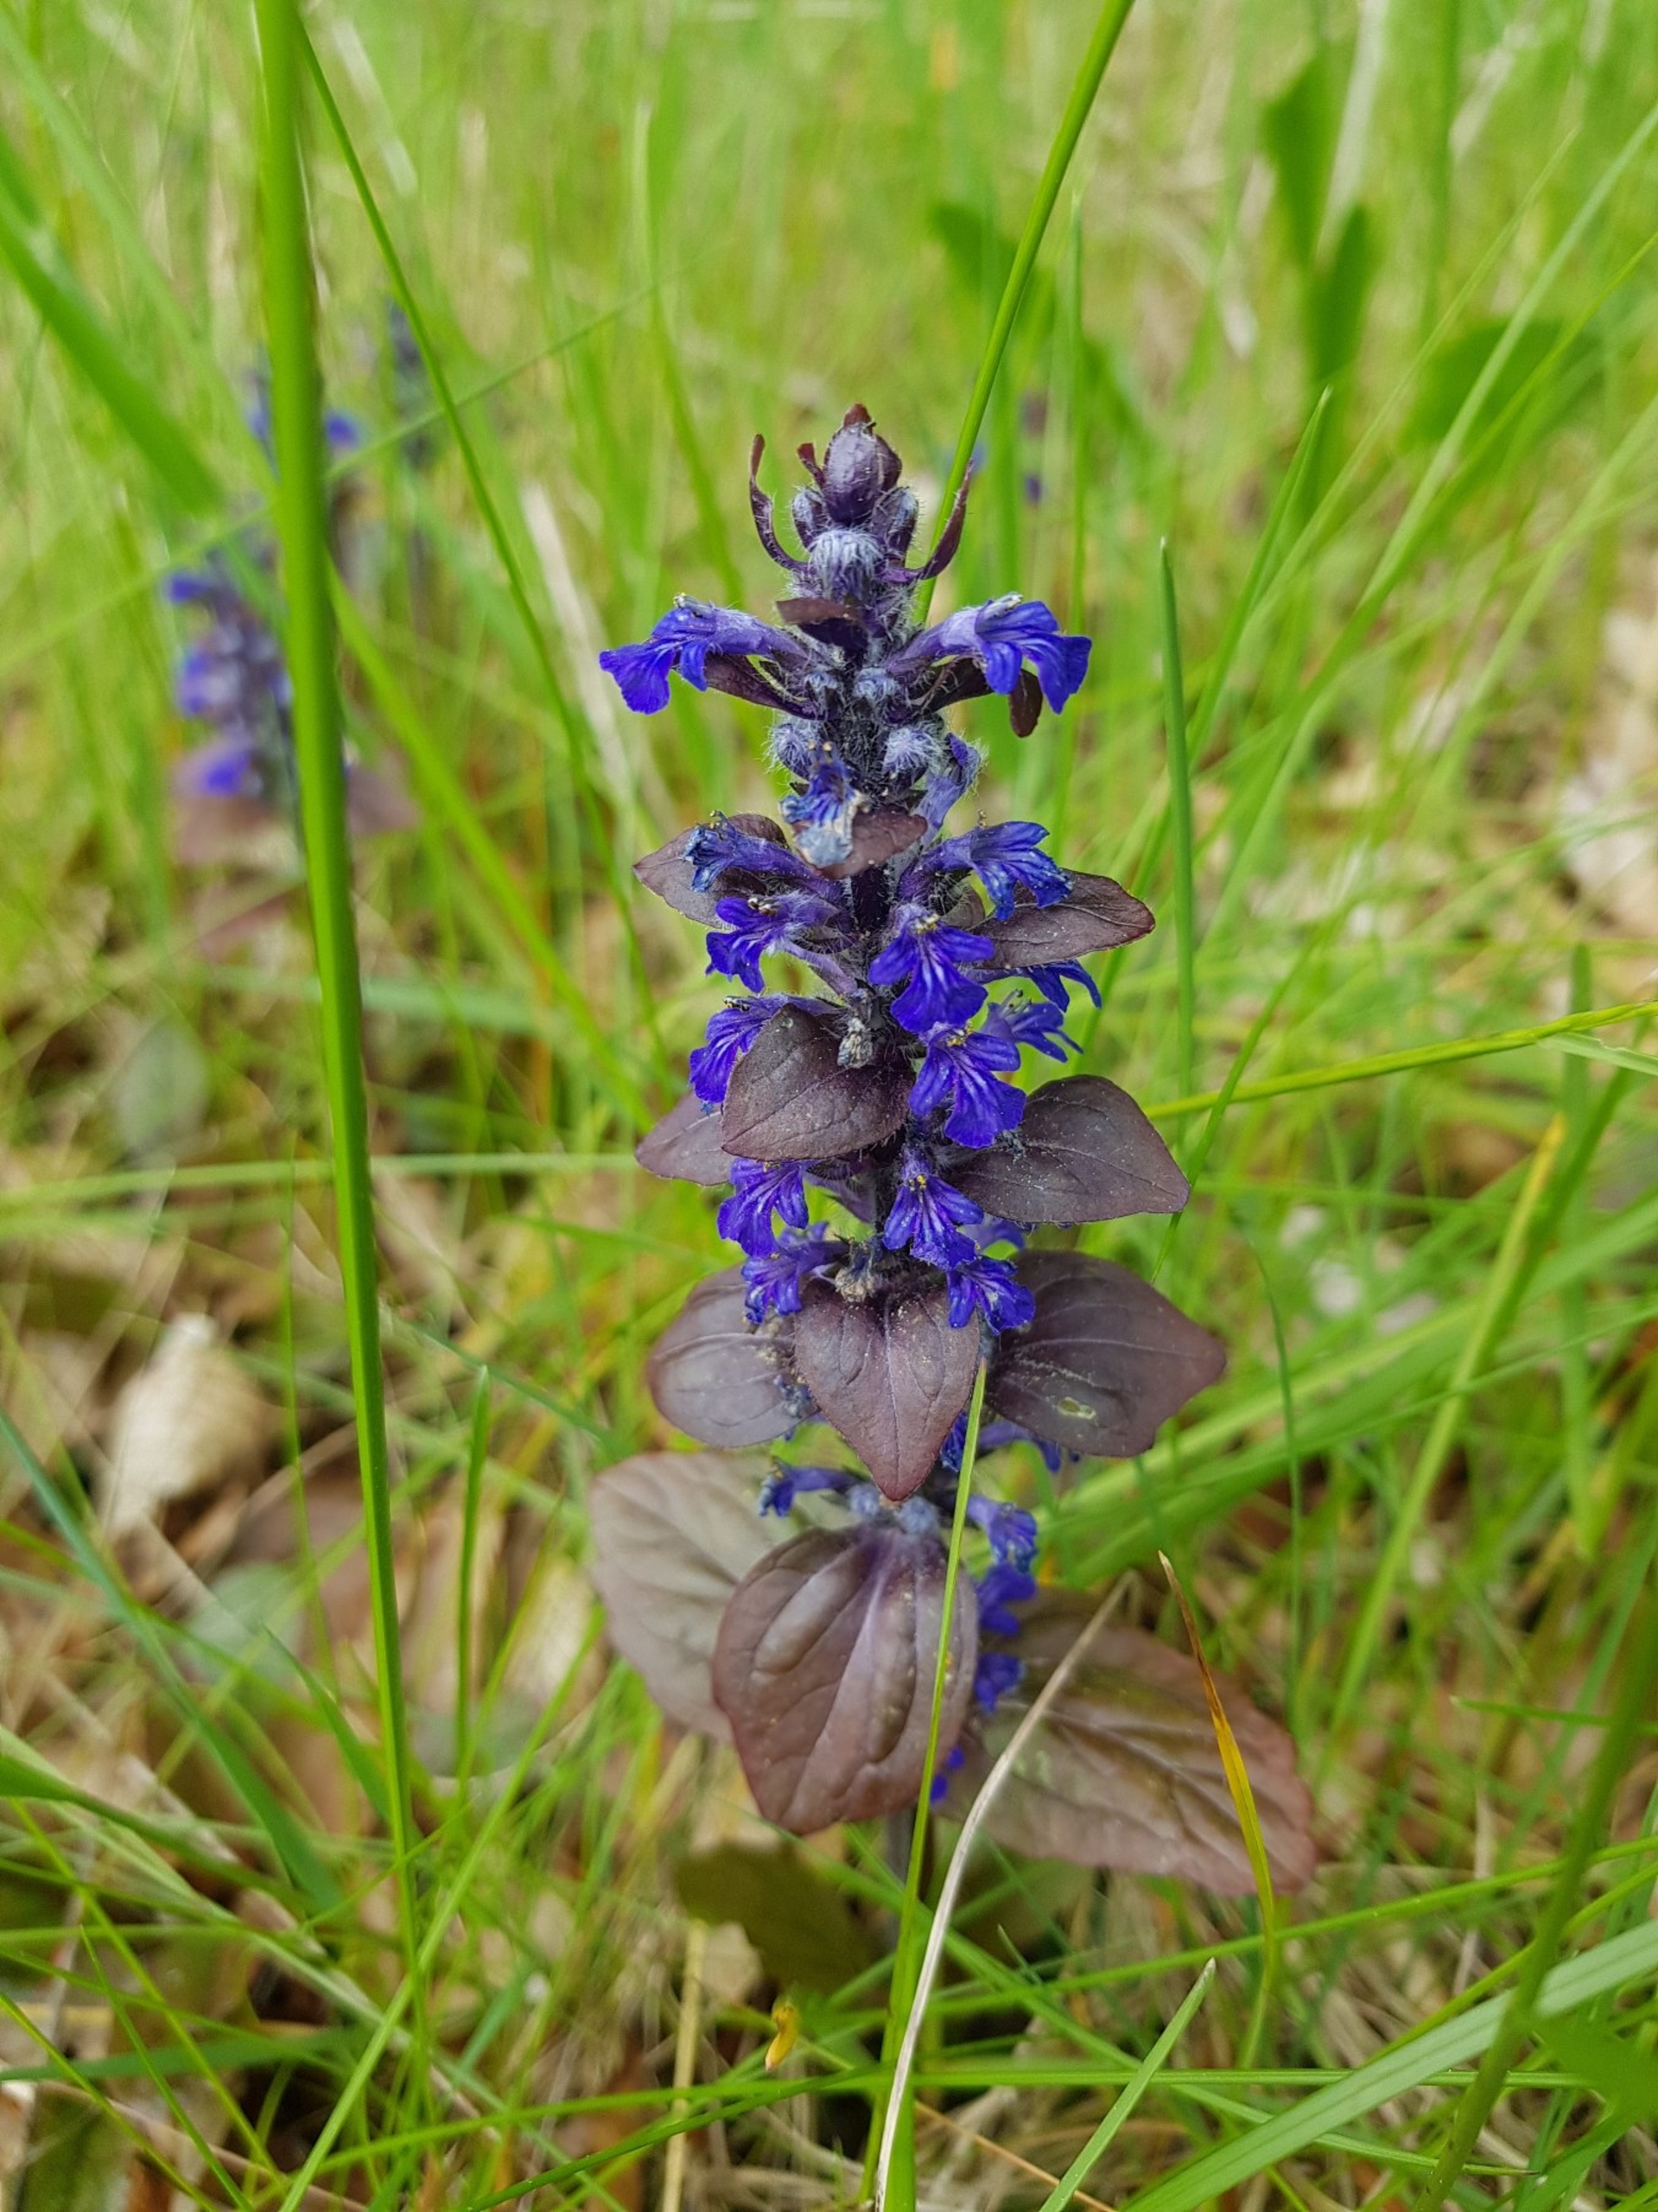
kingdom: Plantae
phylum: Tracheophyta
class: Magnoliopsida
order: Lamiales
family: Lamiaceae
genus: Ajuga
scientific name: Ajuga reptans
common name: Krybende læbeløs
